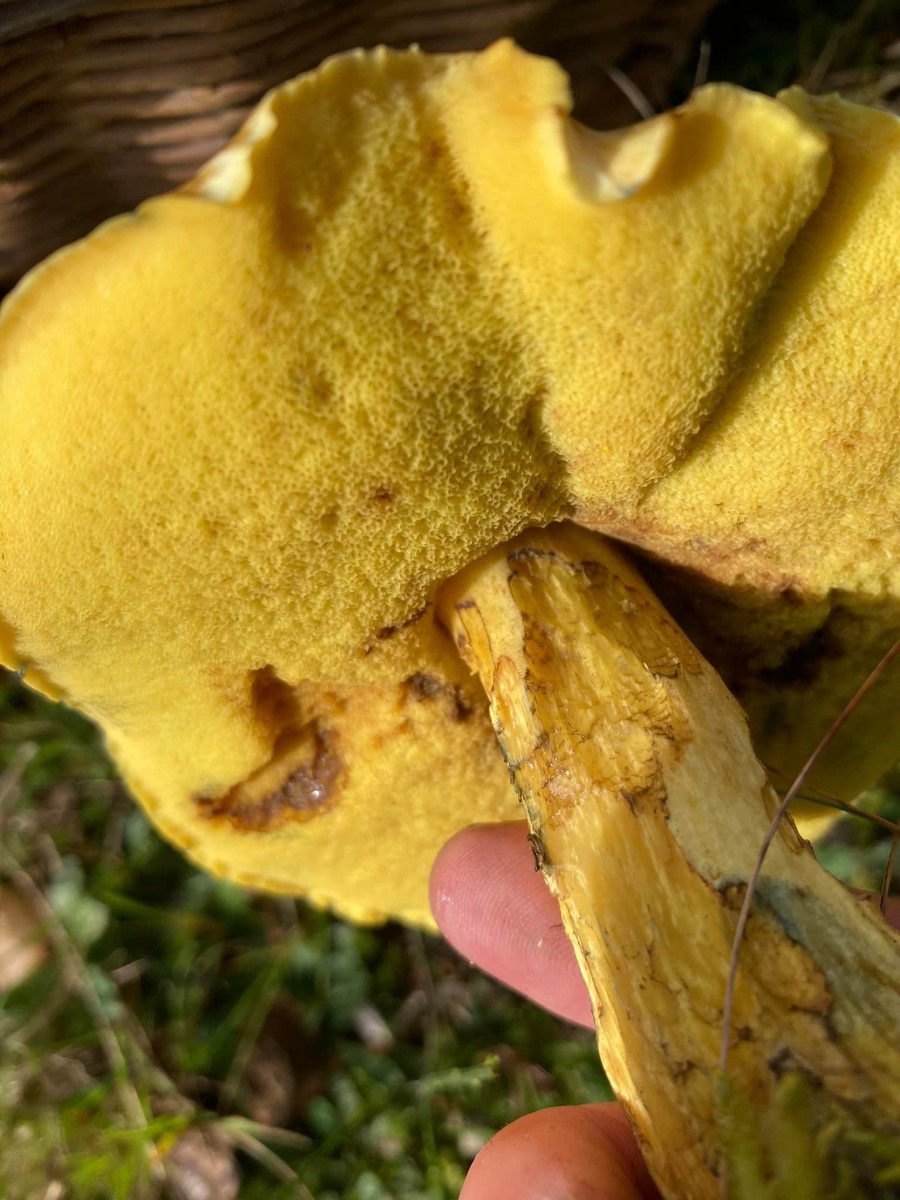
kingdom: Fungi
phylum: Basidiomycota
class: Agaricomycetes
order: Boletales
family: Suillaceae
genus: Suillus
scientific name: Suillus
